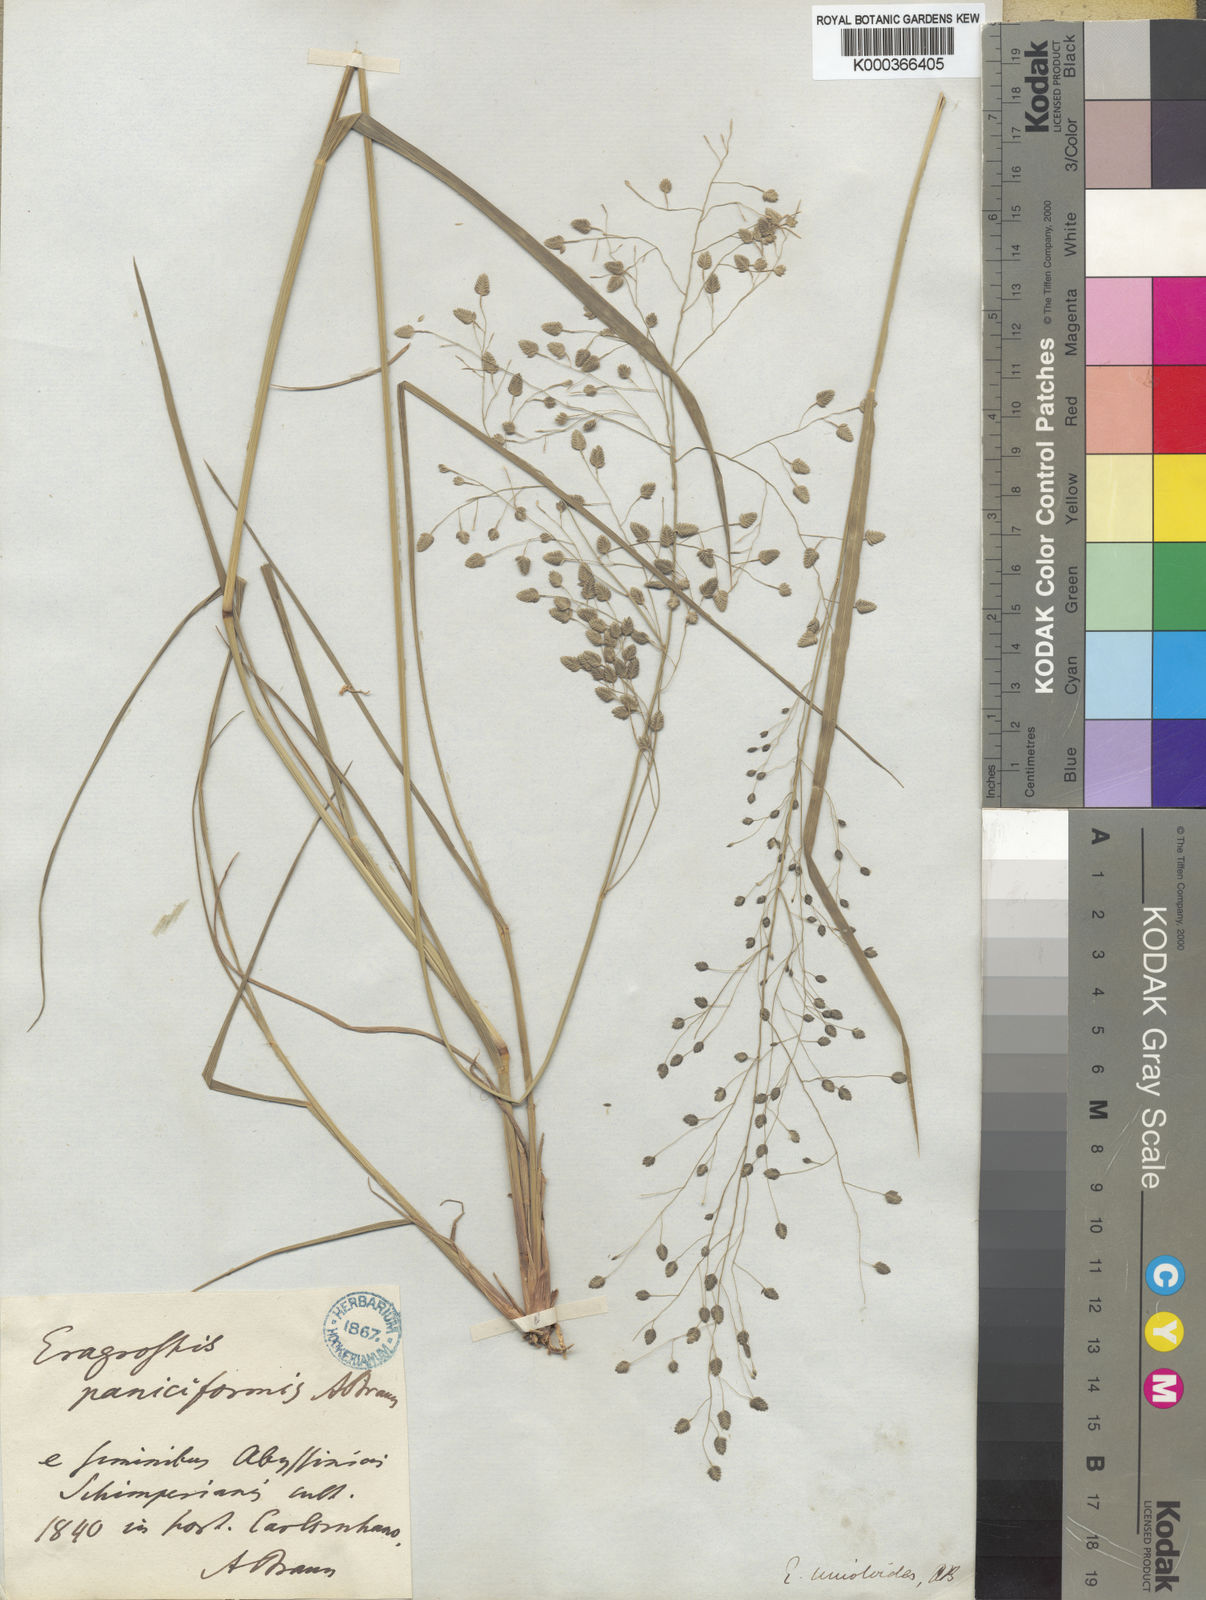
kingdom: Plantae
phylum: Tracheophyta
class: Liliopsida
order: Poales
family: Poaceae
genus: Eragrostis
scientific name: Eragrostis paniciformis
